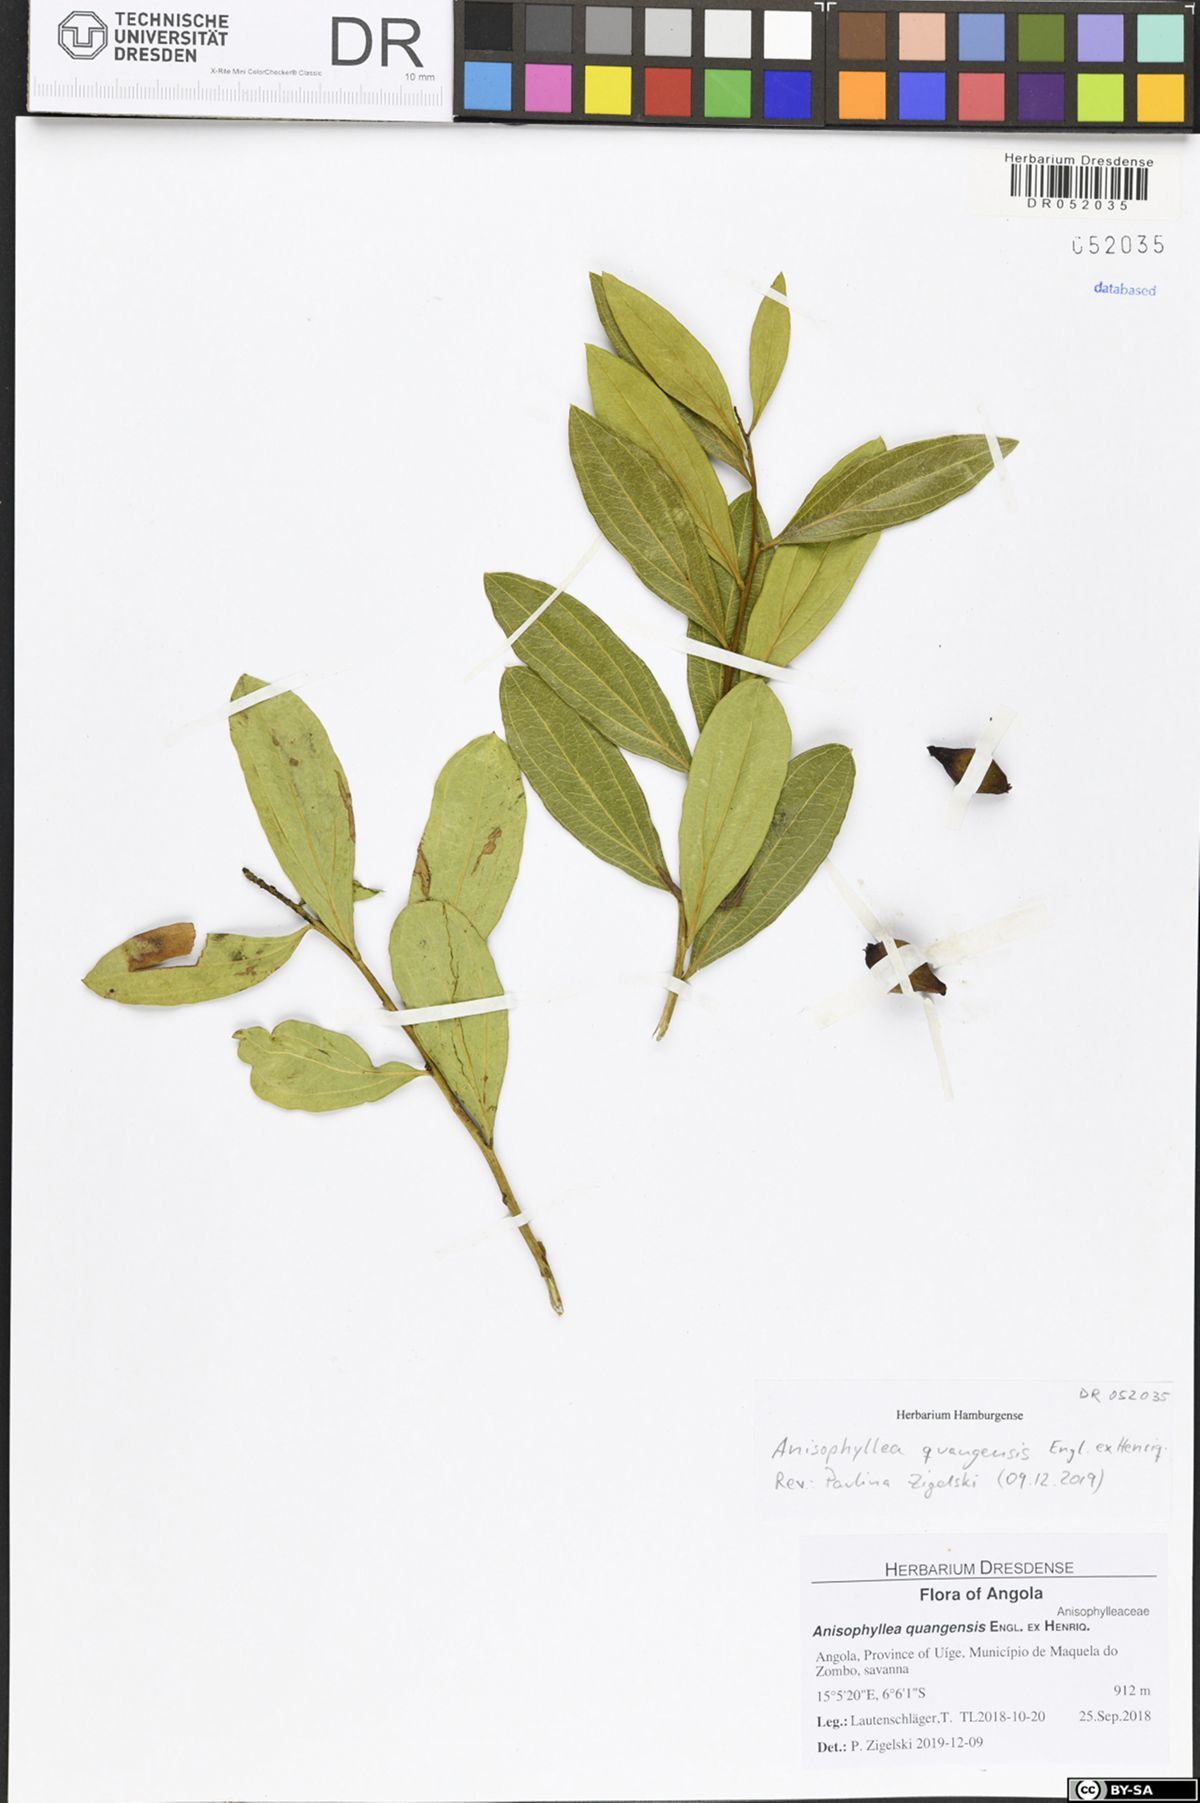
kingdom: Plantae
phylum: Tracheophyta
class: Magnoliopsida
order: Cucurbitales
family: Anisophylleaceae
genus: Anisophyllea
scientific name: Anisophyllea quangensis
